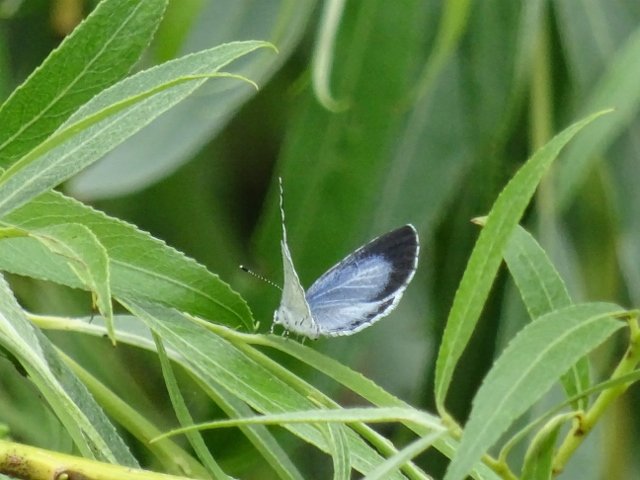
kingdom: Animalia
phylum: Arthropoda
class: Insecta
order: Lepidoptera
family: Lycaenidae
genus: Celastrina
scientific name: Celastrina
